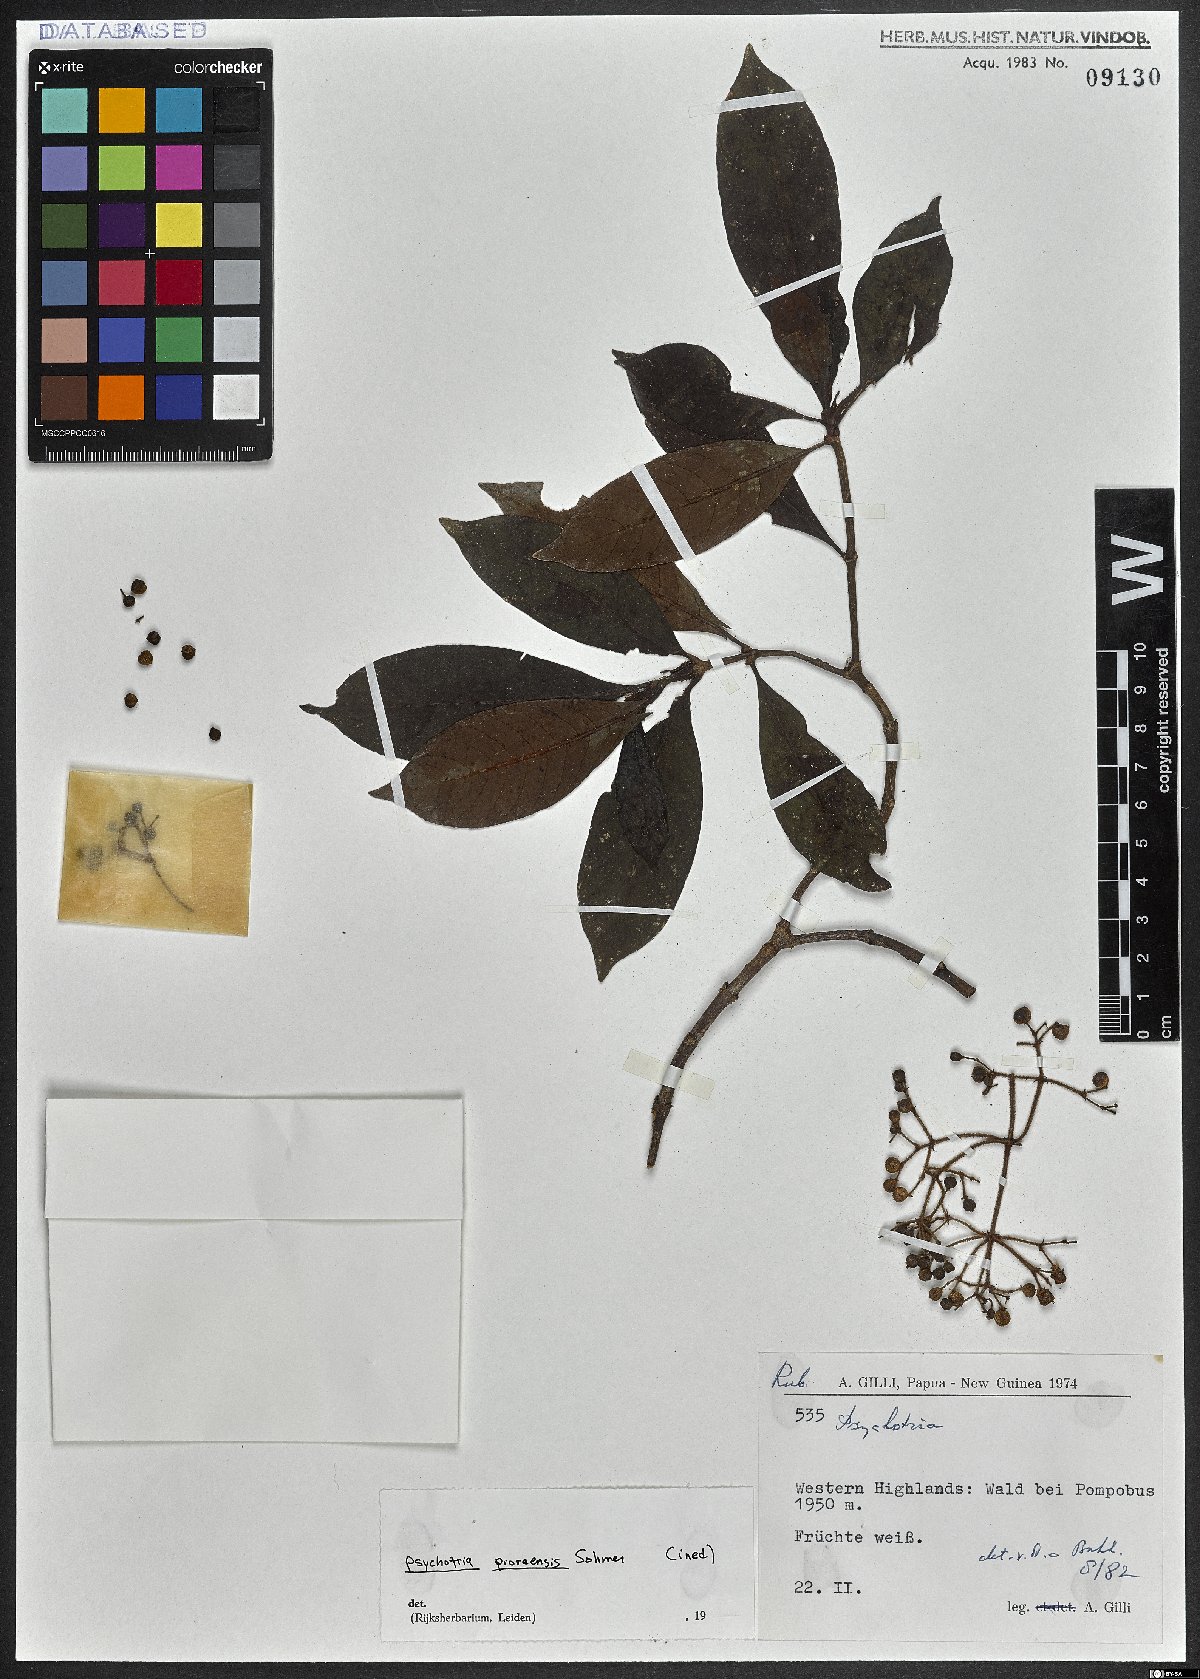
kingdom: Plantae
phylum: Tracheophyta
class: Magnoliopsida
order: Gentianales
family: Rubiaceae
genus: Psychotria
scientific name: Psychotria
